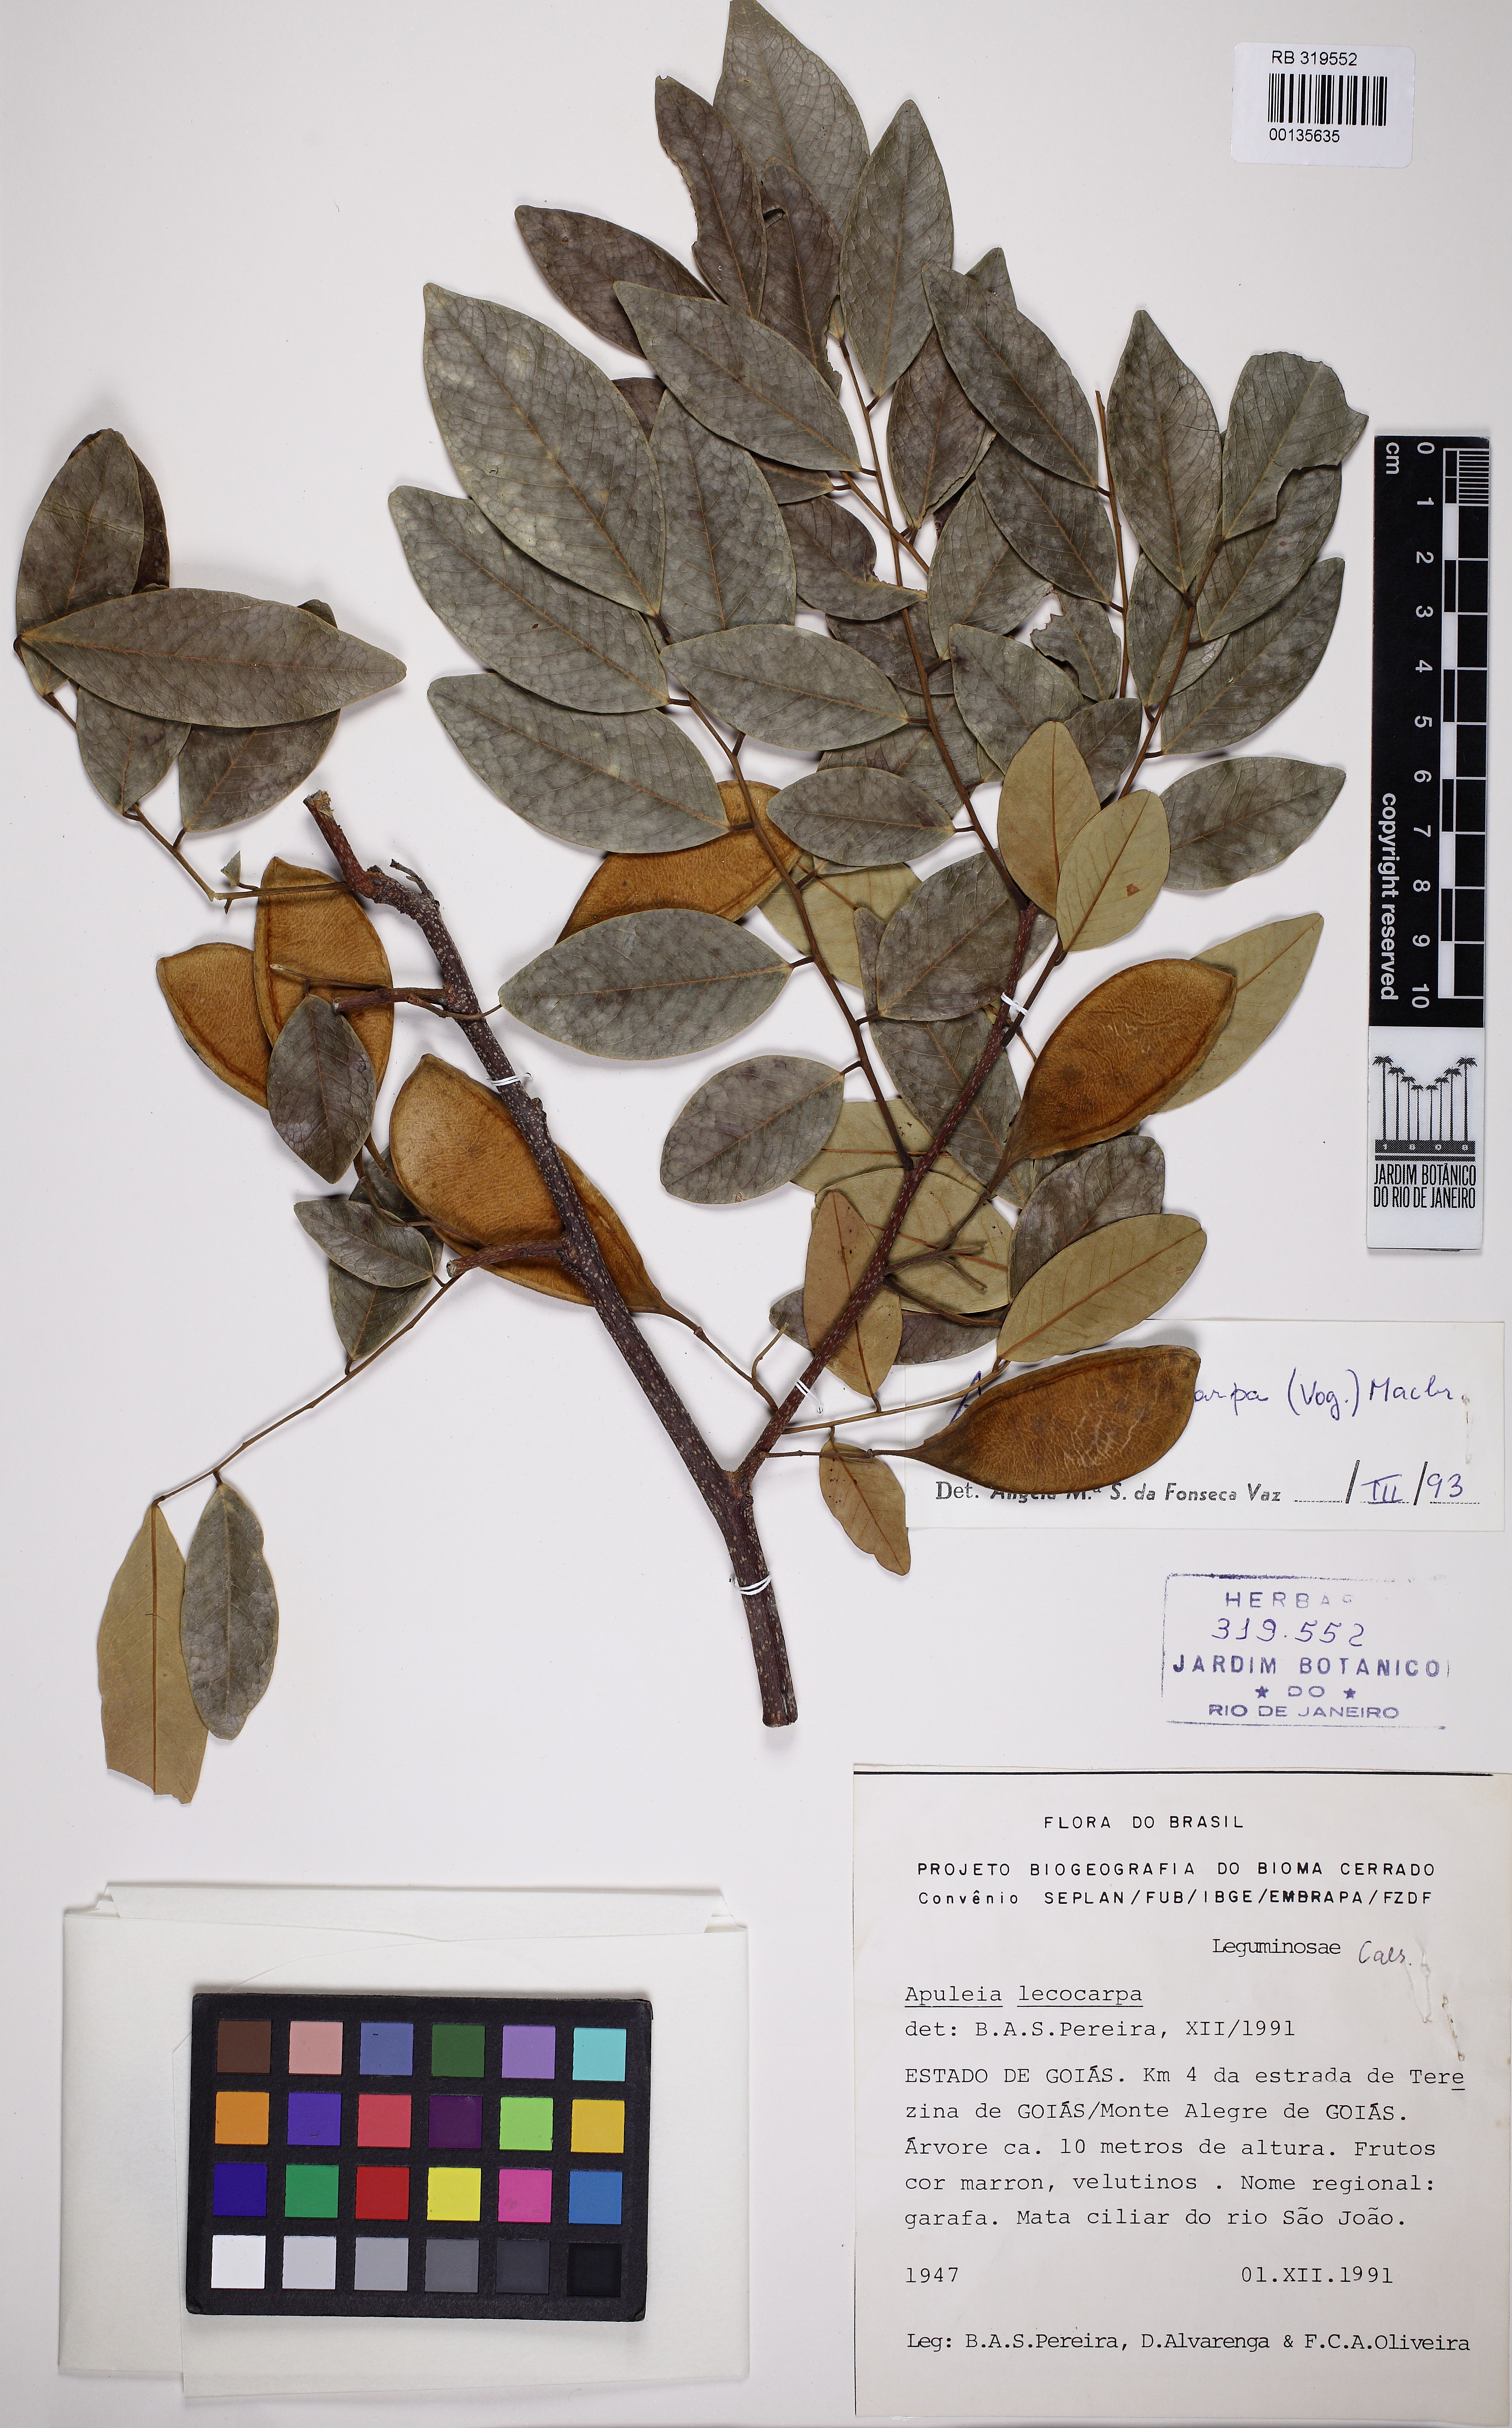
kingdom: Plantae
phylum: Tracheophyta
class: Magnoliopsida
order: Fabales
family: Fabaceae
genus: Apuleia
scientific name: Apuleia leiocarpa
